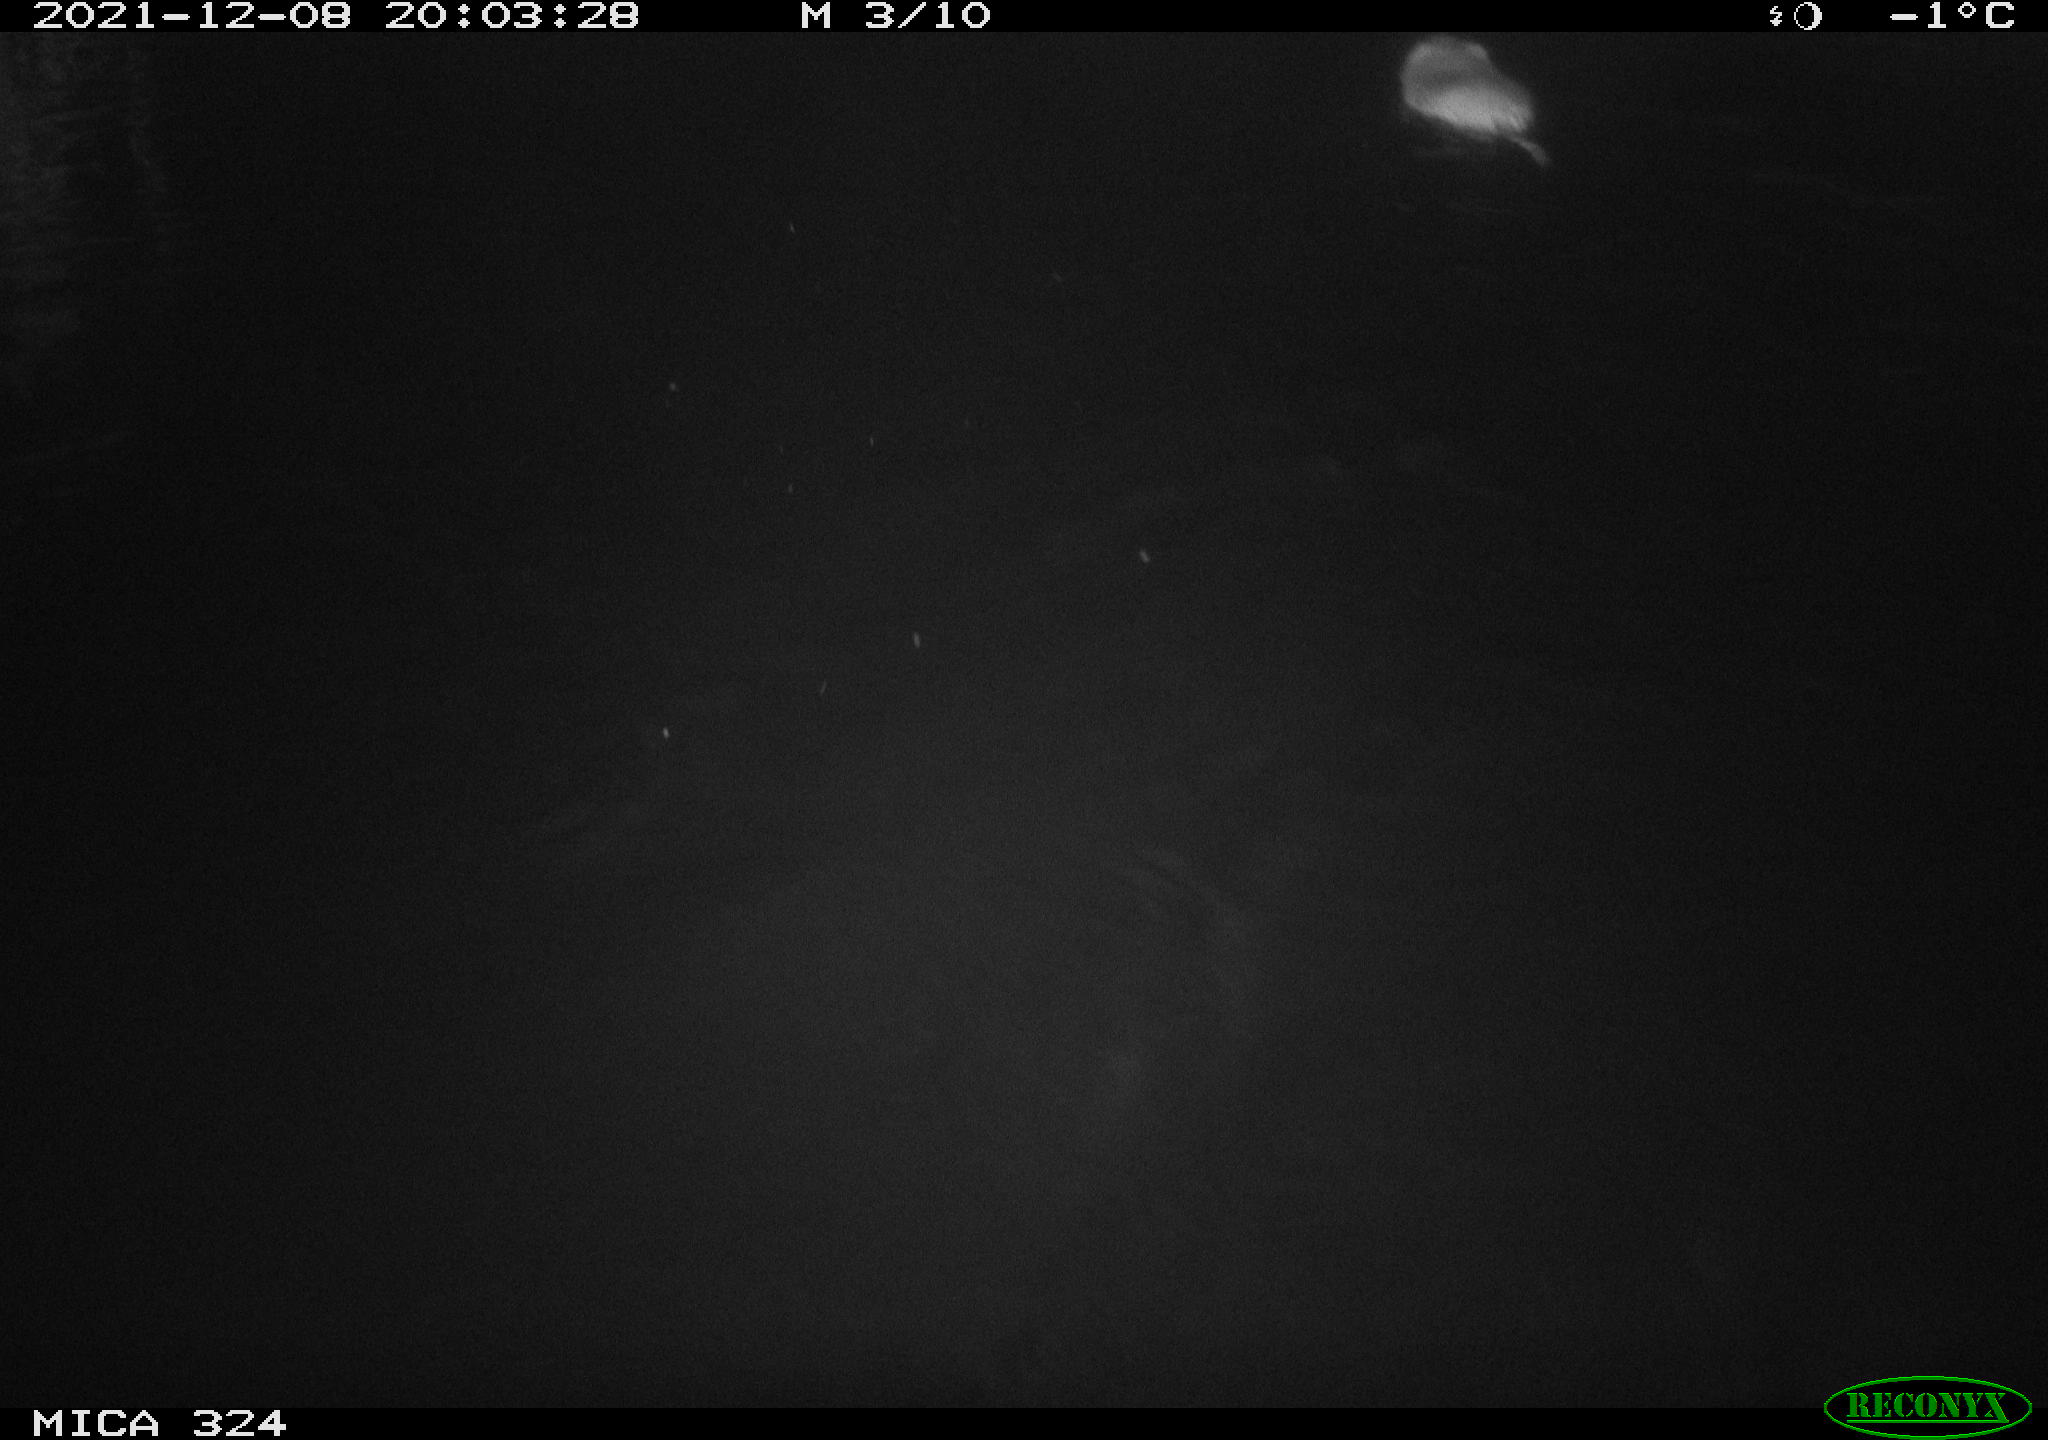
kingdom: Animalia
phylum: Chordata
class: Mammalia
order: Rodentia
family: Cricetidae
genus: Ondatra
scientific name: Ondatra zibethicus
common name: Muskrat
